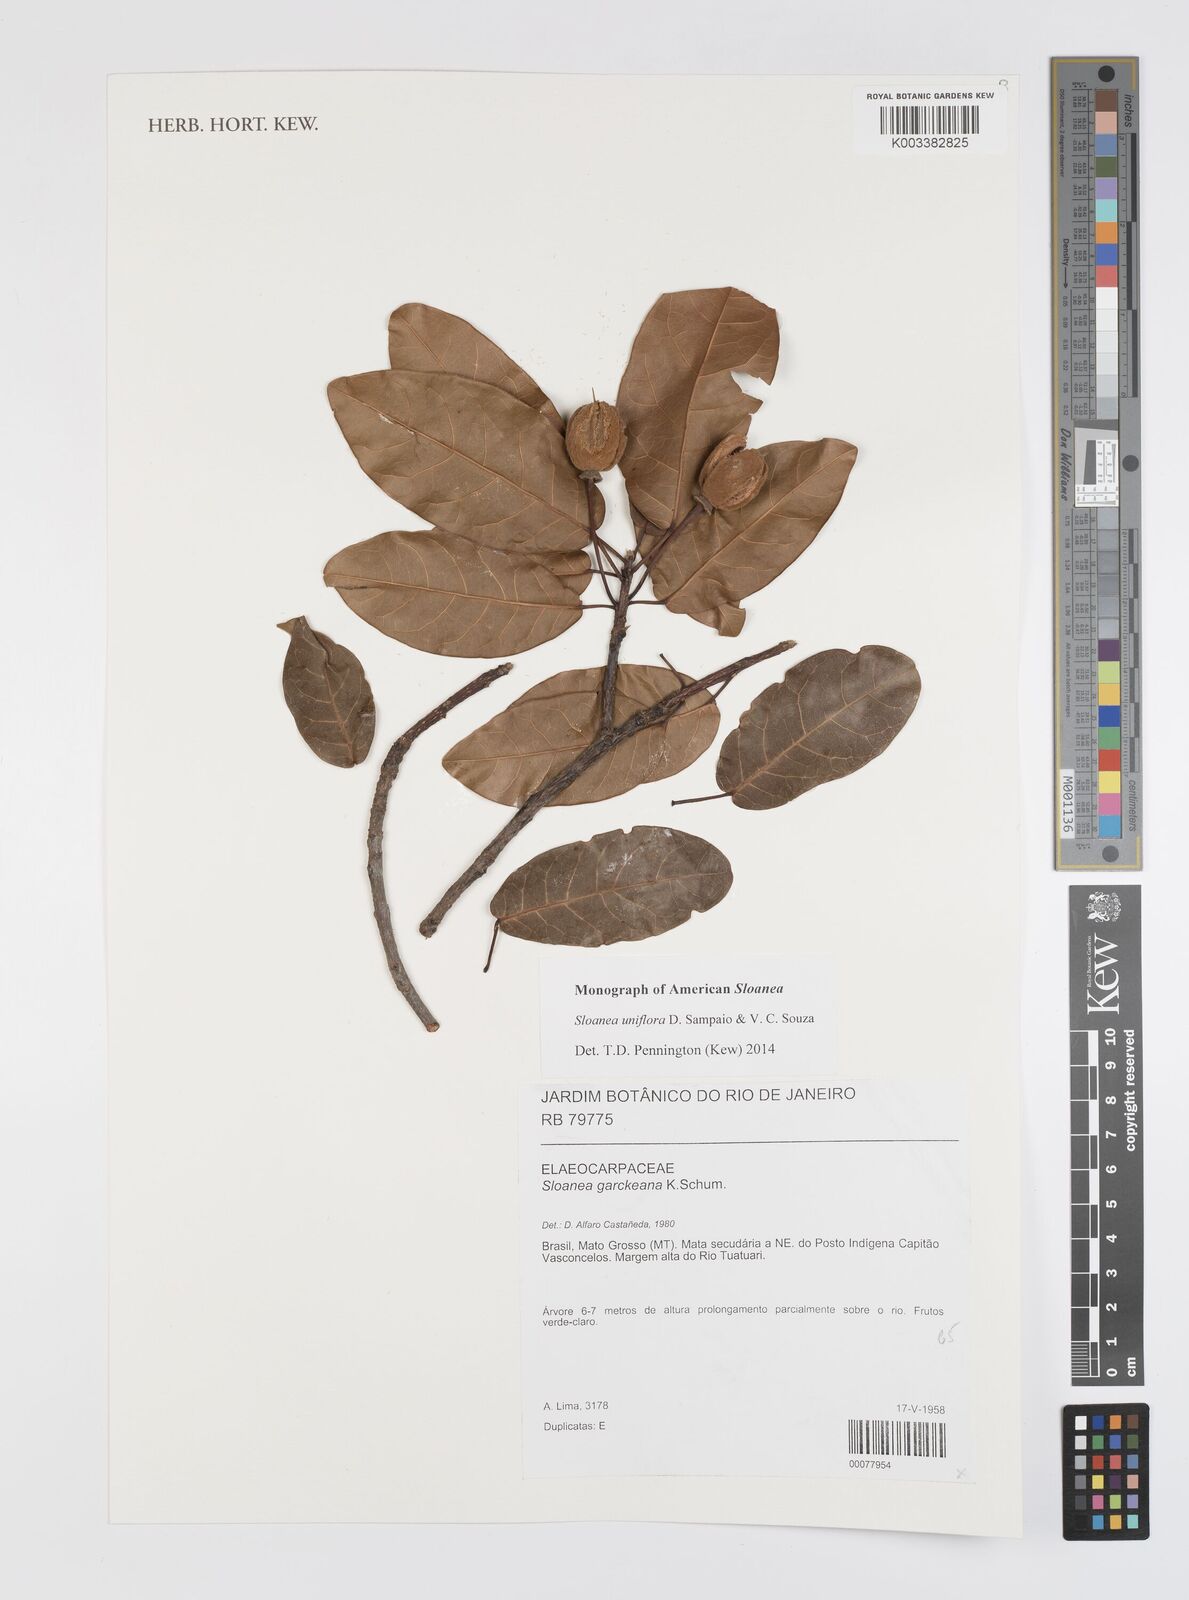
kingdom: Plantae
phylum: Tracheophyta
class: Magnoliopsida
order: Oxalidales
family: Elaeocarpaceae
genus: Sloanea
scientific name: Sloanea uniflora
